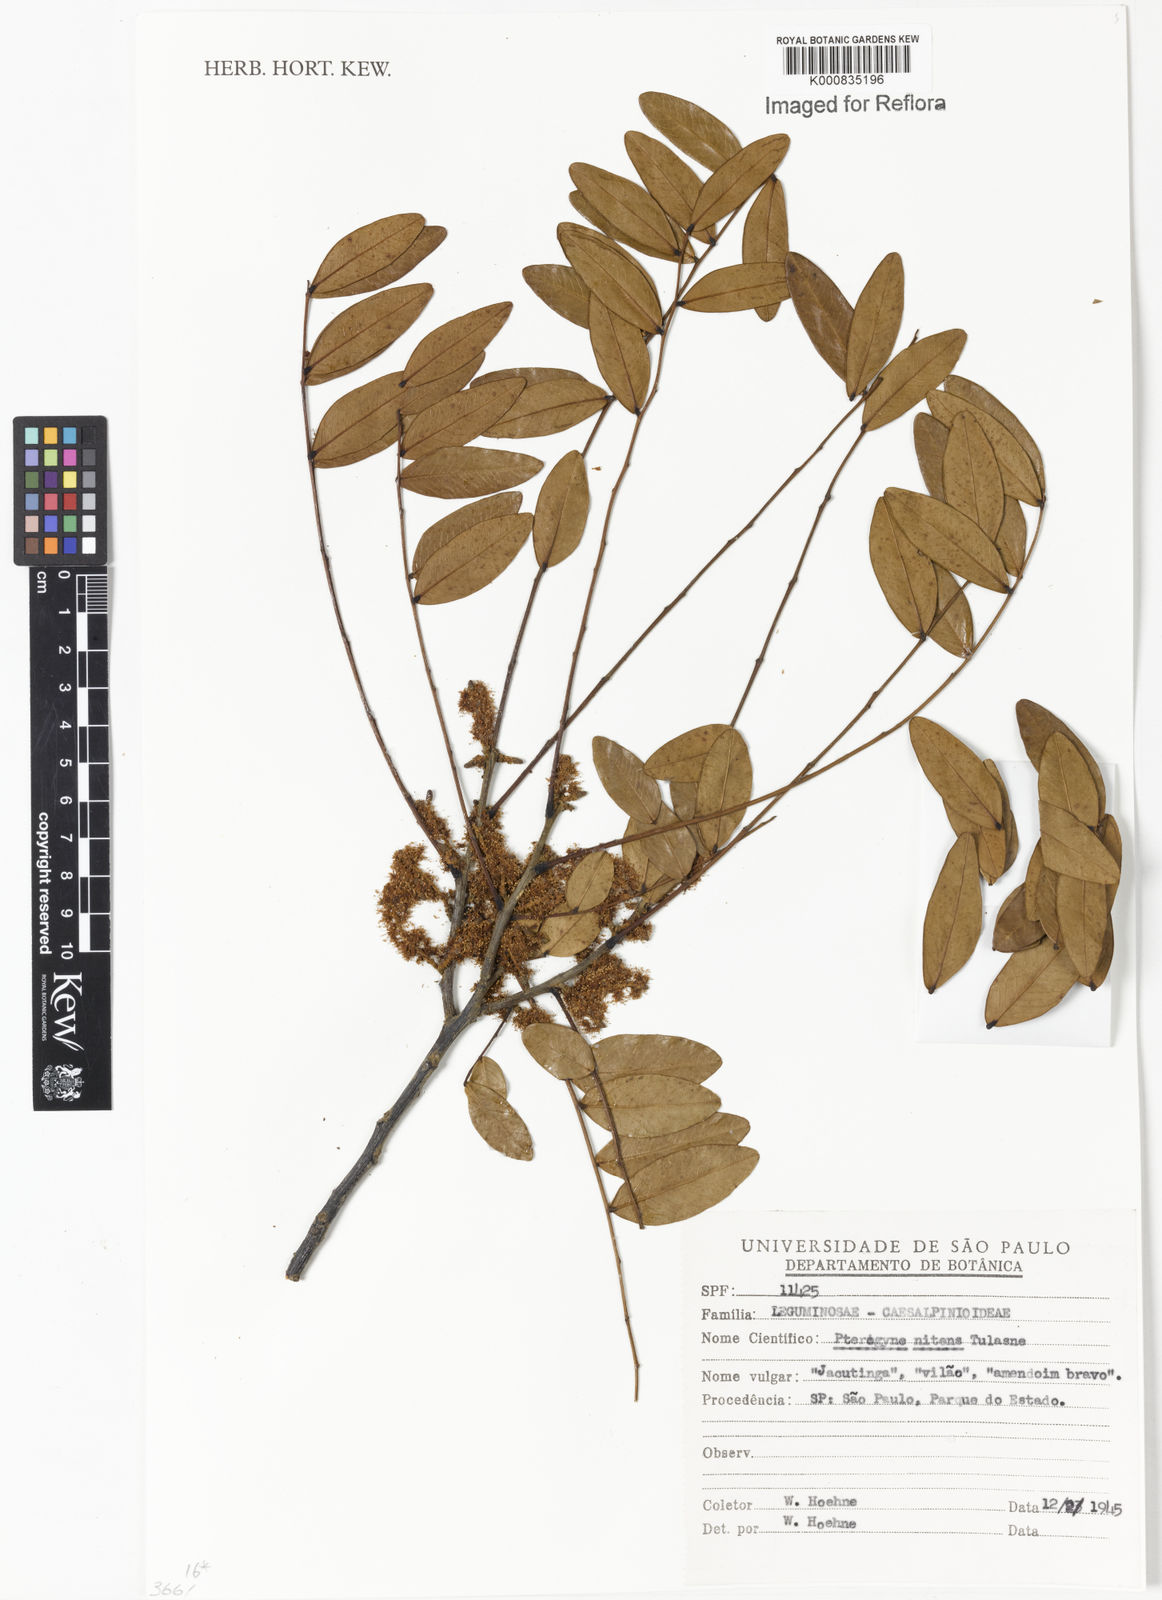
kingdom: Plantae
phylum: Tracheophyta
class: Magnoliopsida
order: Fabales
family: Fabaceae
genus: Pterogyne
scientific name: Pterogyne nitens
